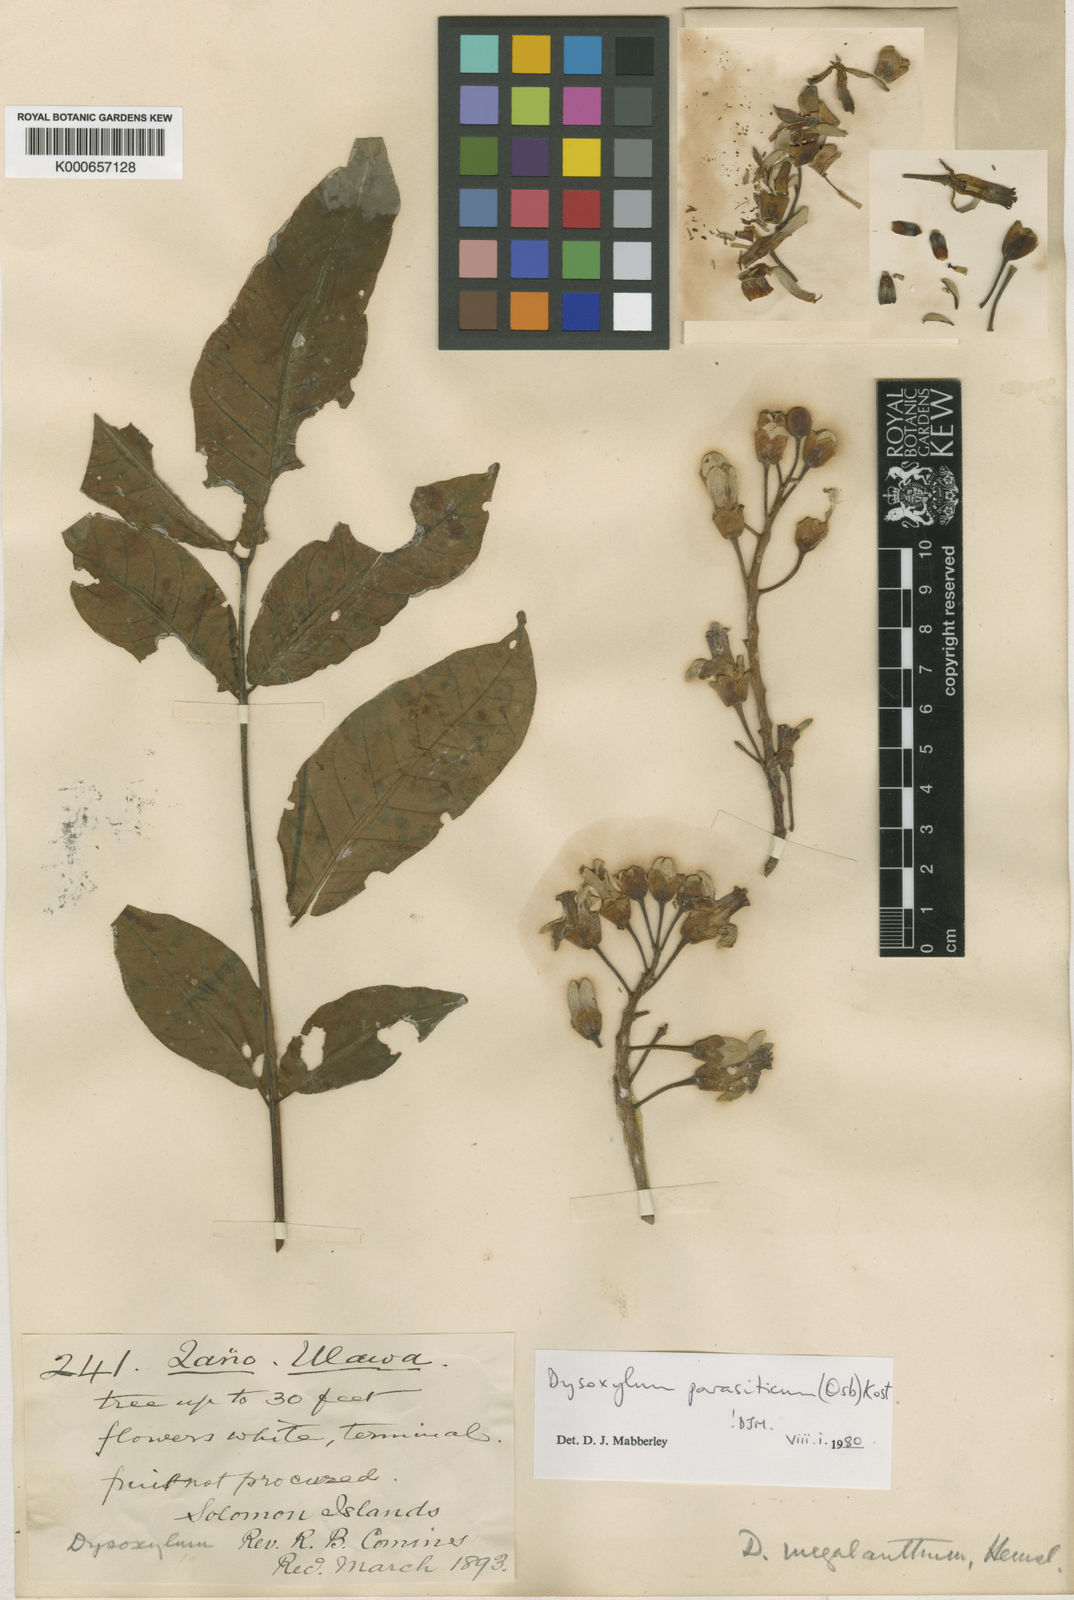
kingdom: Plantae
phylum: Tracheophyta
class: Magnoliopsida
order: Sapindales
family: Meliaceae
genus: Epicharis
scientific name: Epicharis parasitica
